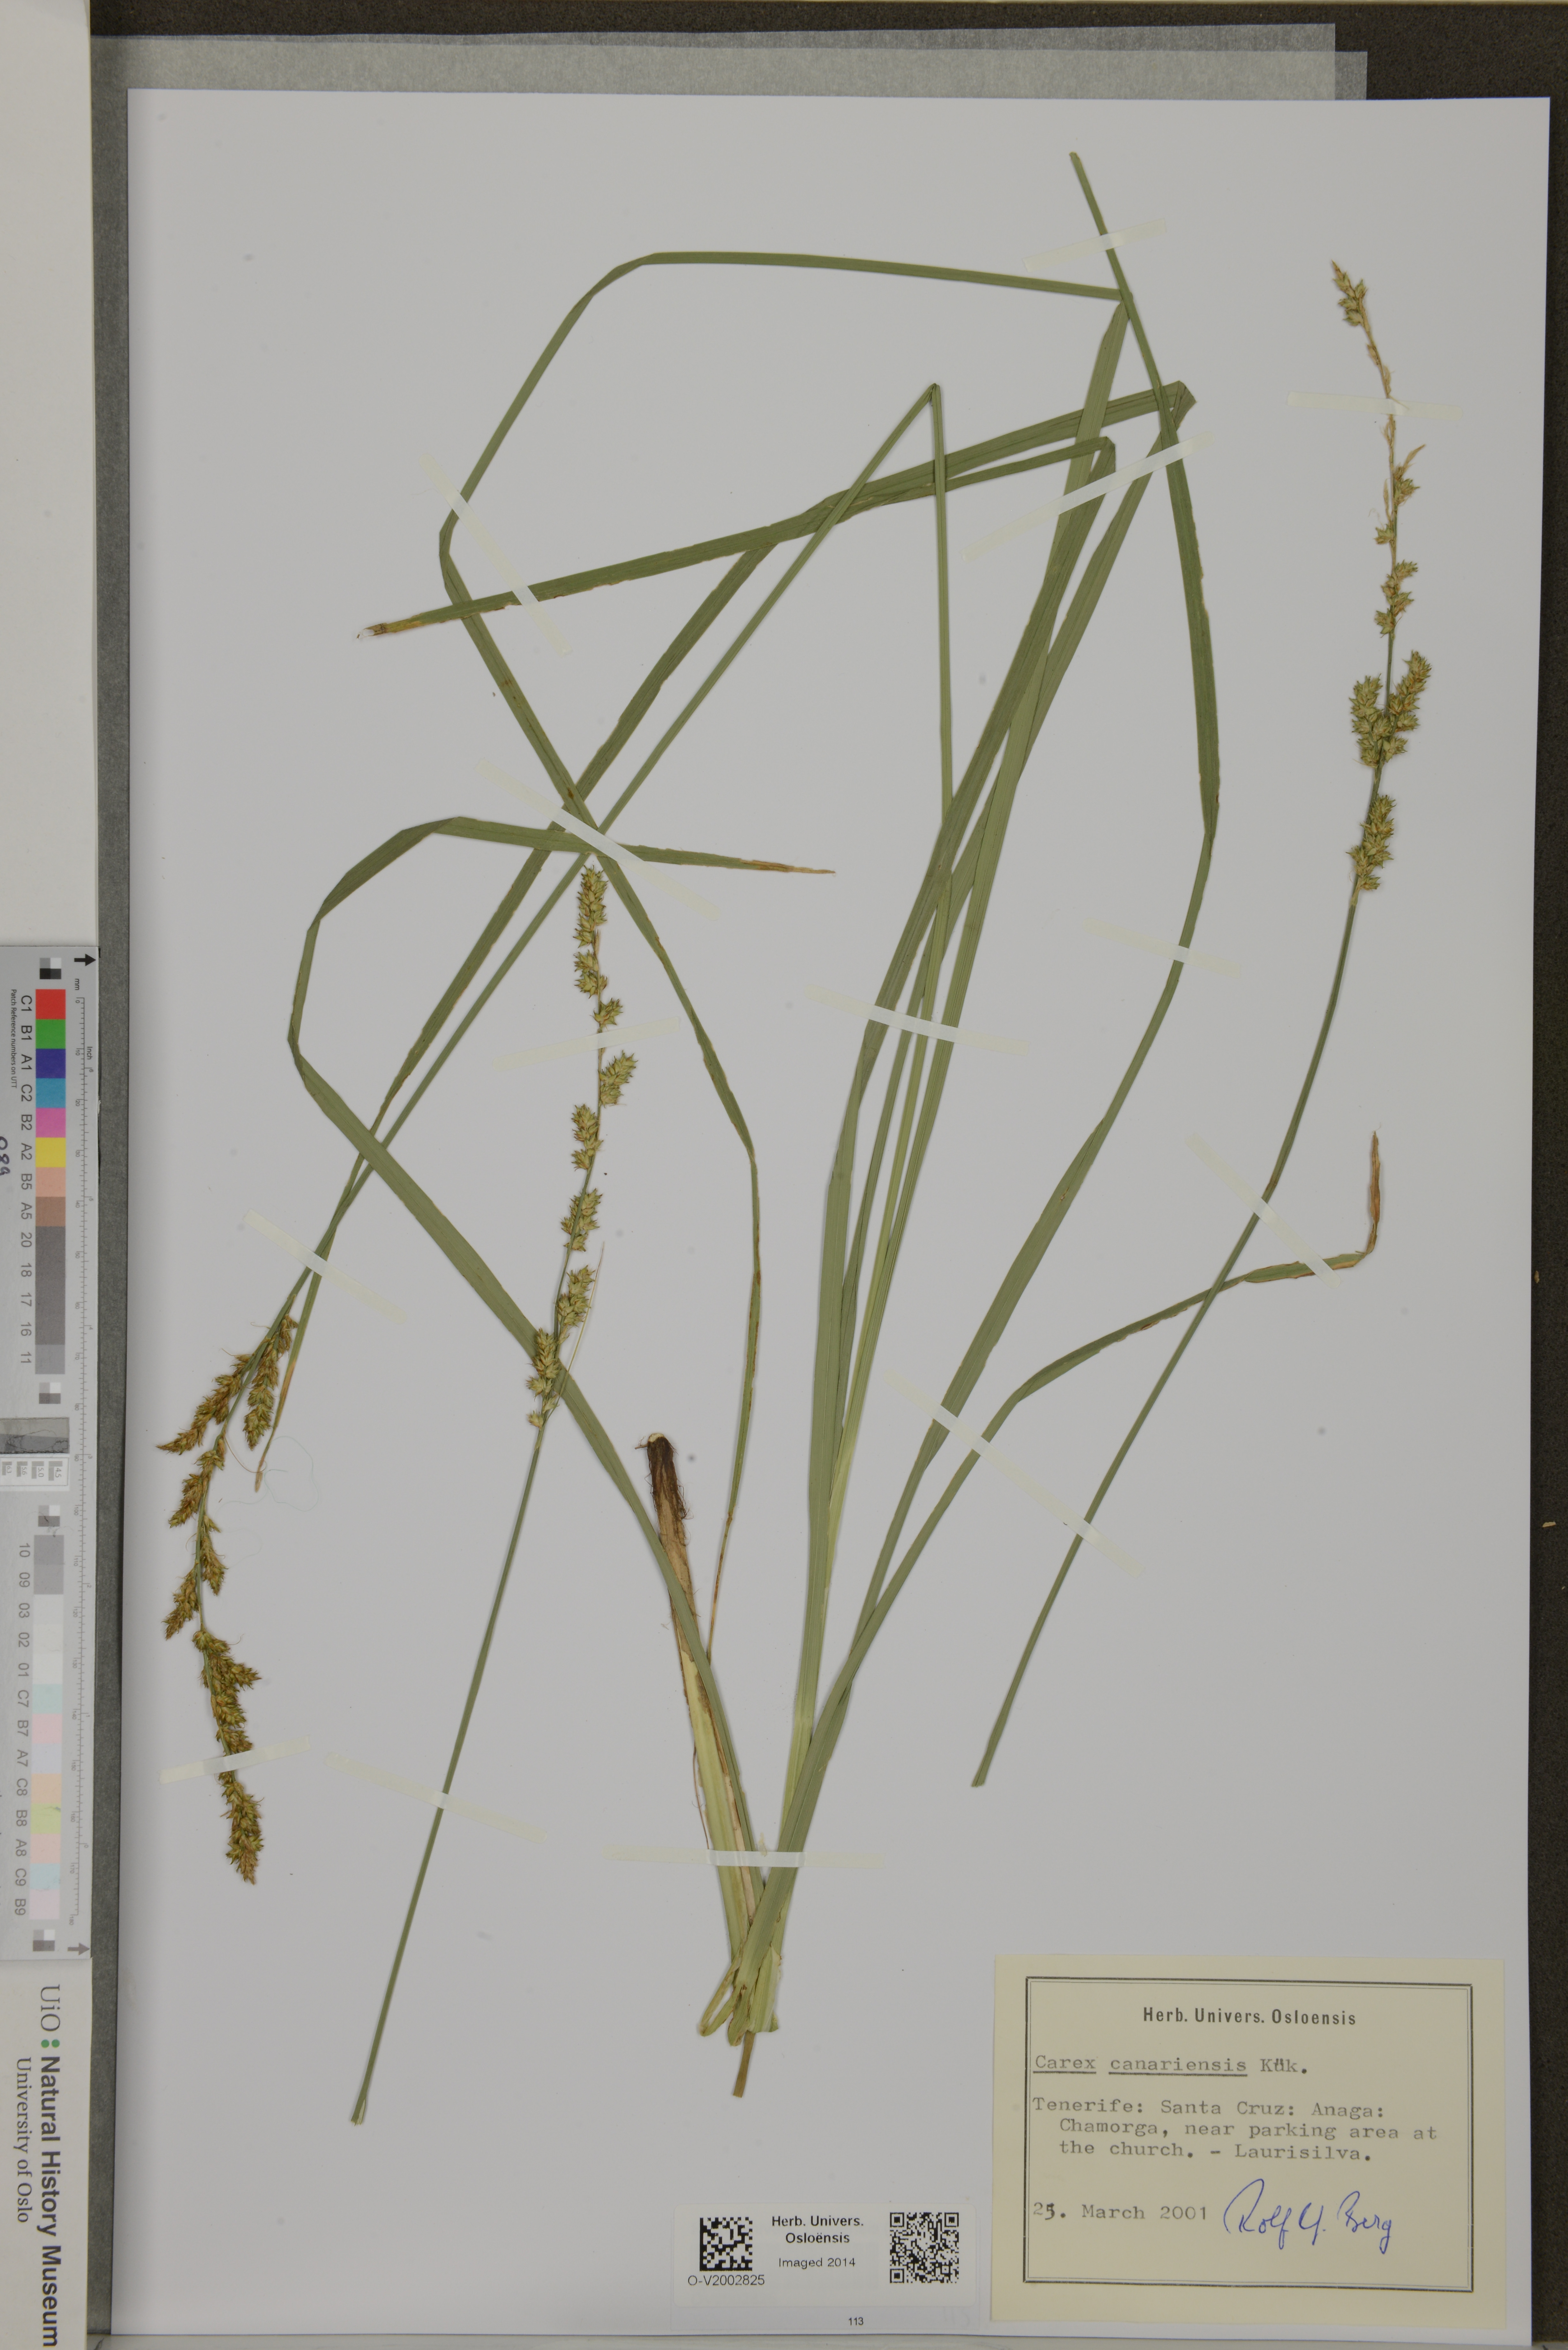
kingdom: Plantae
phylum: Tracheophyta
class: Liliopsida
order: Poales
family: Cyperaceae
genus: Carex
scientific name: Carex canariensis
